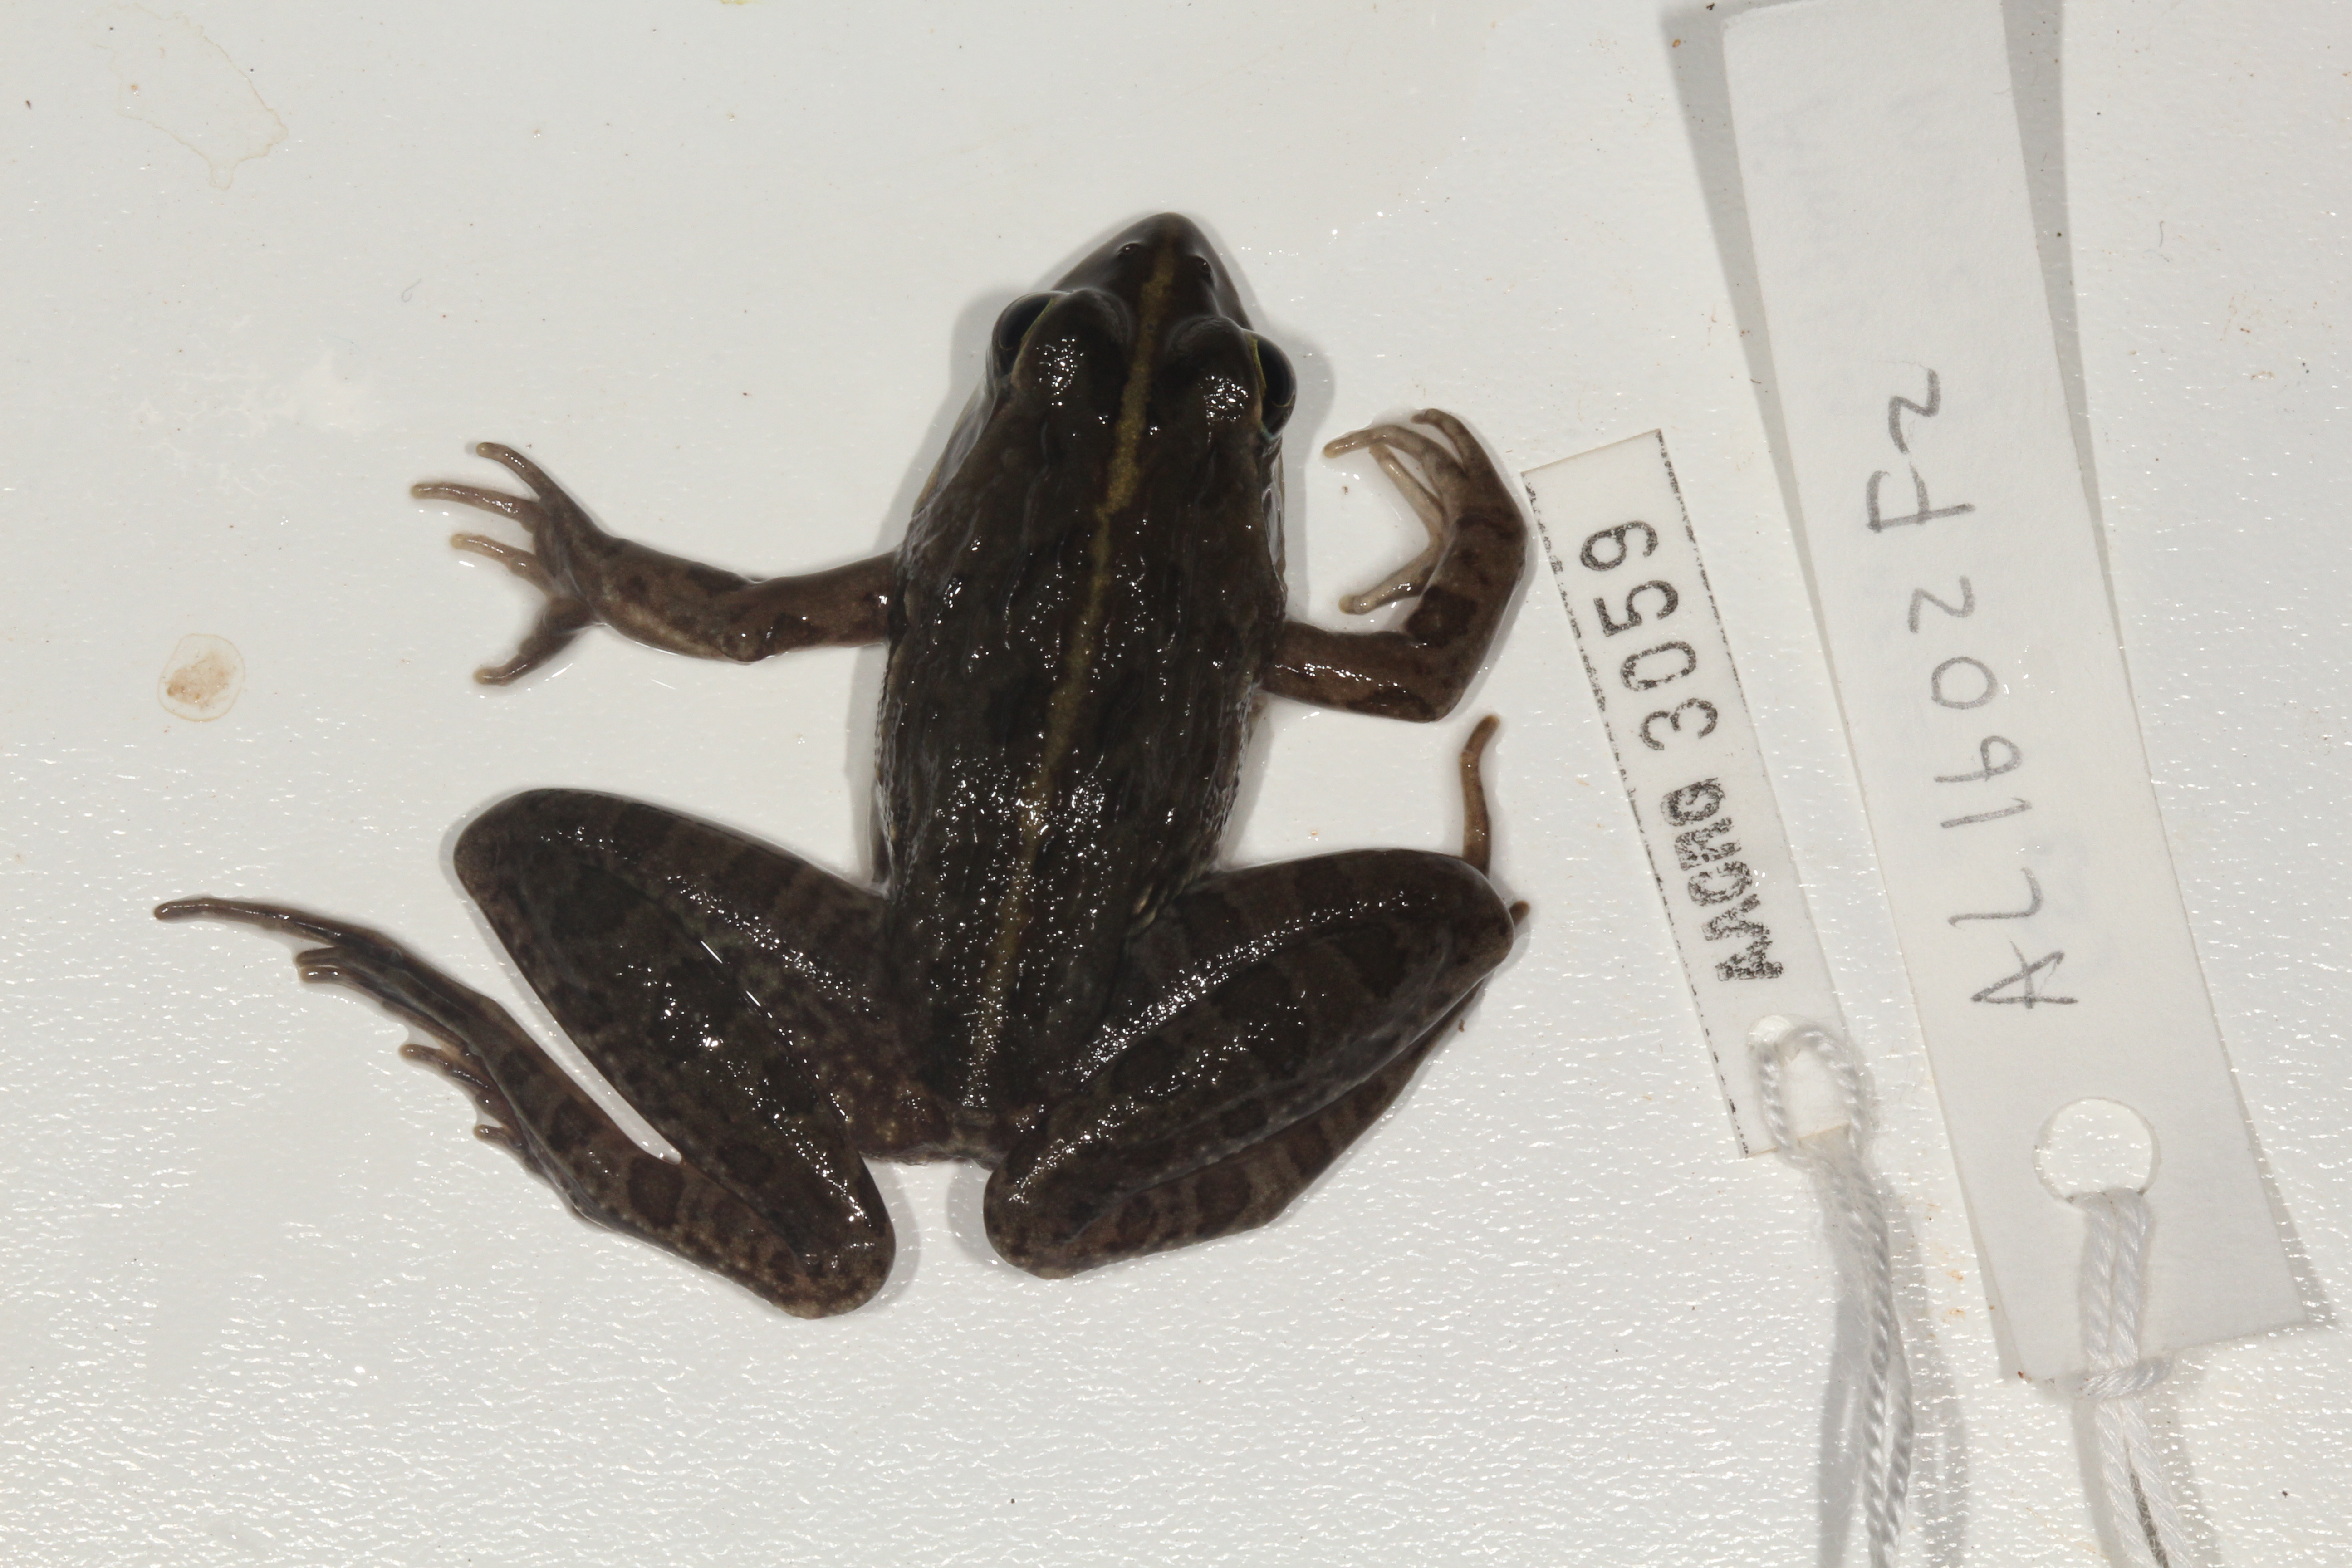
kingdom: Animalia
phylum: Chordata
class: Amphibia
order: Anura
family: Pyxicephalidae
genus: Amietia
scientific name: Amietia delalandii
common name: Delalande's river frog
